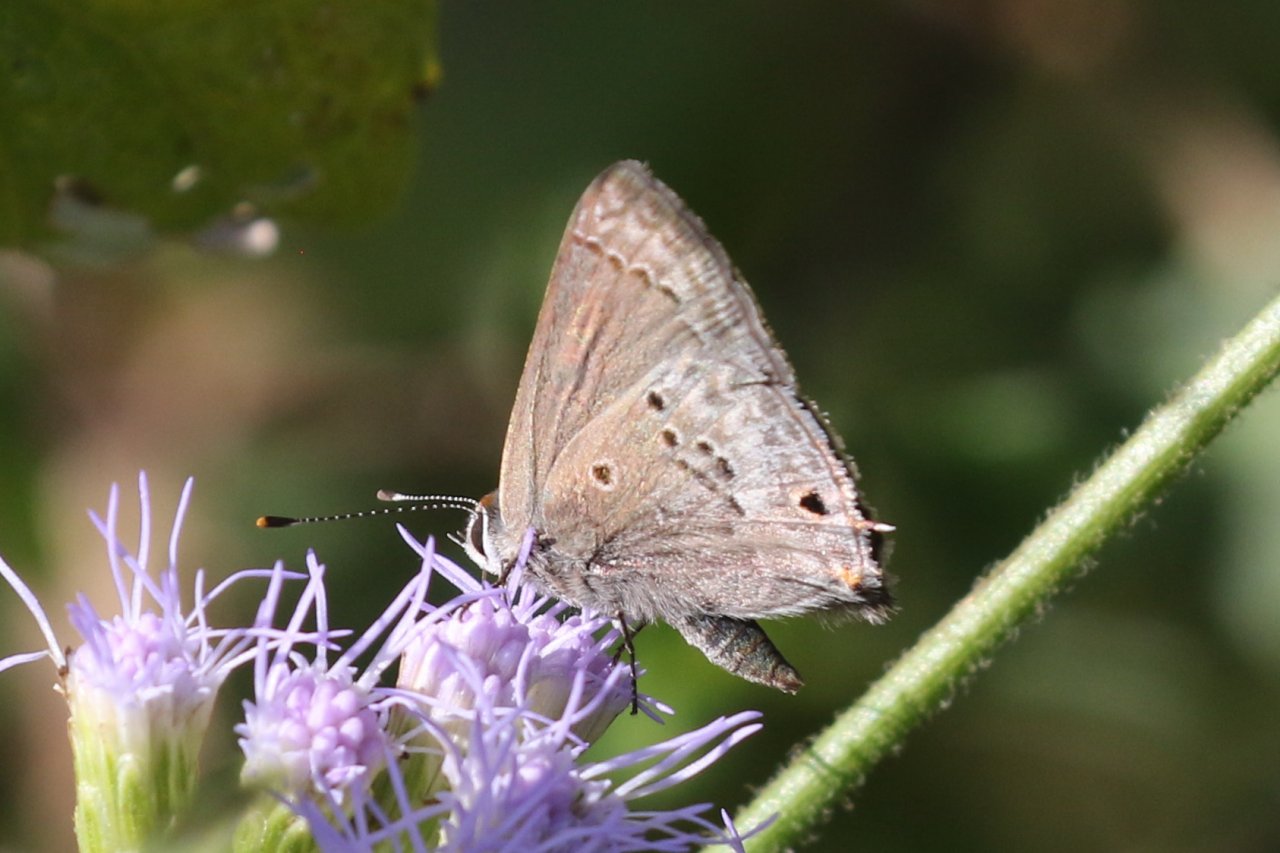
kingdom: Animalia
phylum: Arthropoda
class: Insecta
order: Lepidoptera
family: Lycaenidae
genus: Callicista
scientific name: Callicista columella
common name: Mallow Scrub-Hairstreak
